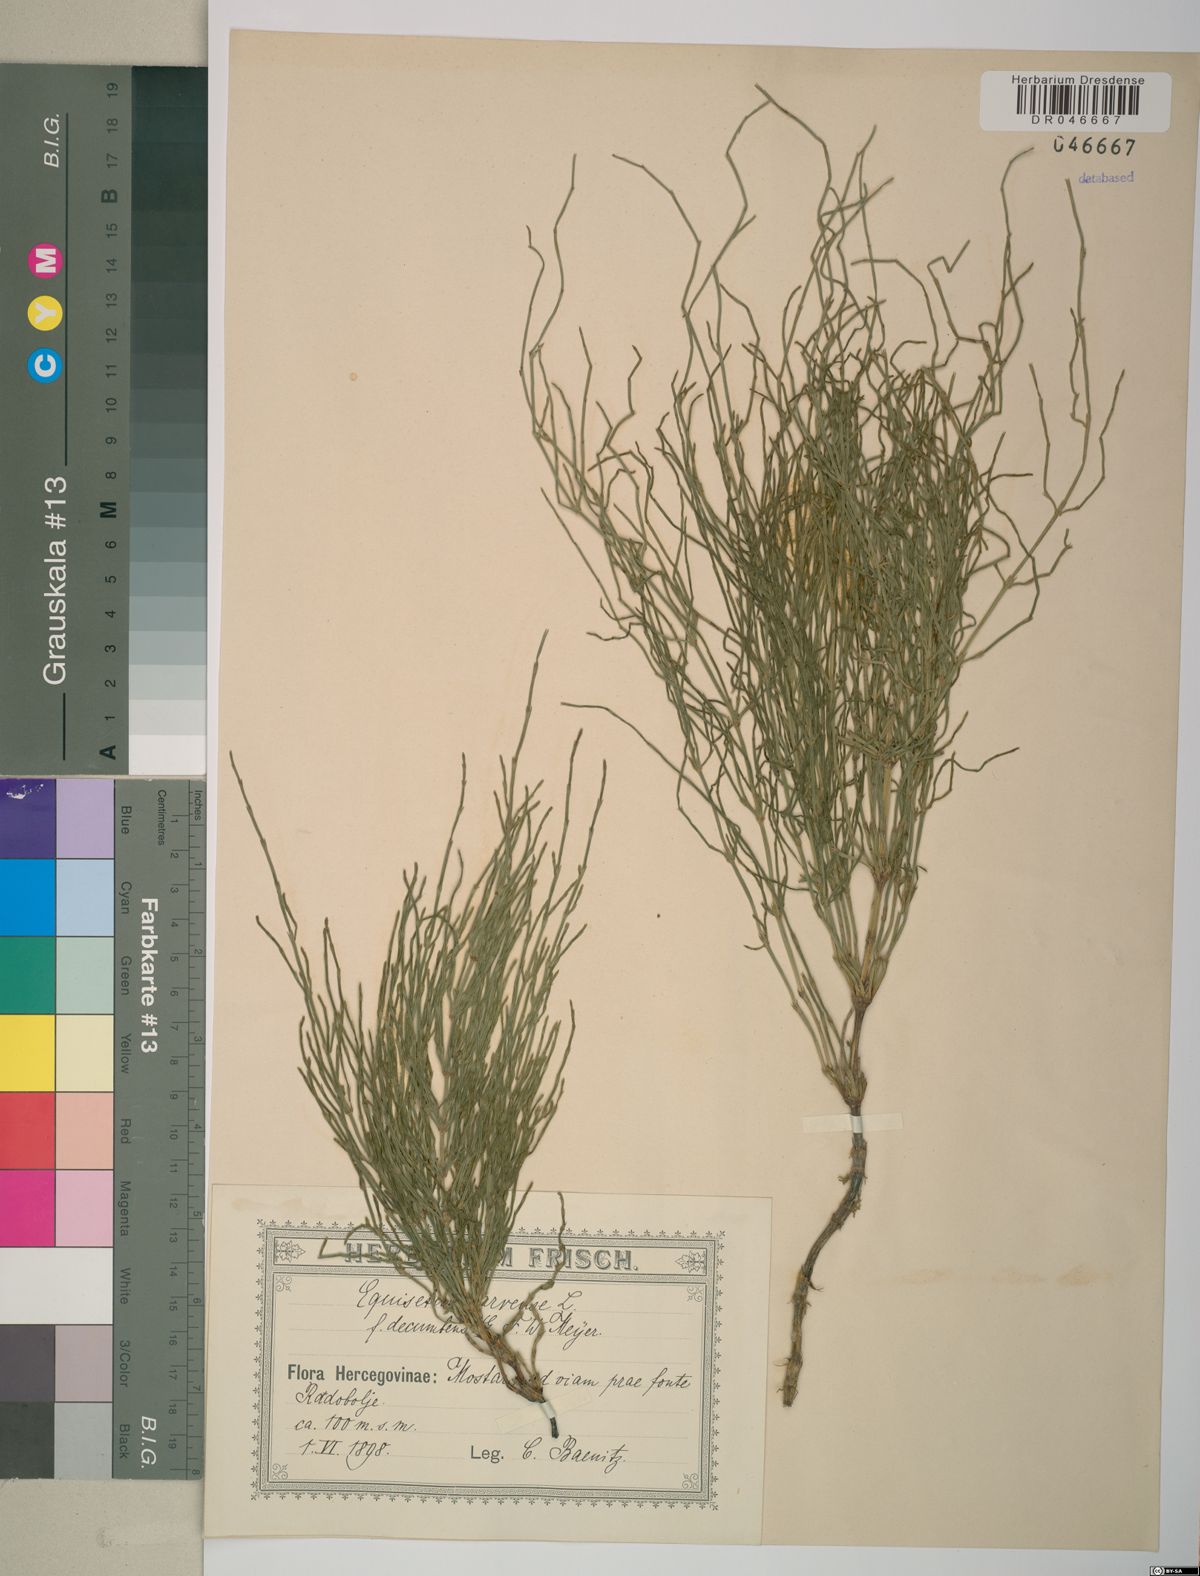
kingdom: Plantae
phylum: Tracheophyta
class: Polypodiopsida
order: Equisetales
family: Equisetaceae
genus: Equisetum
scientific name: Equisetum arvense
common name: Field horsetail
